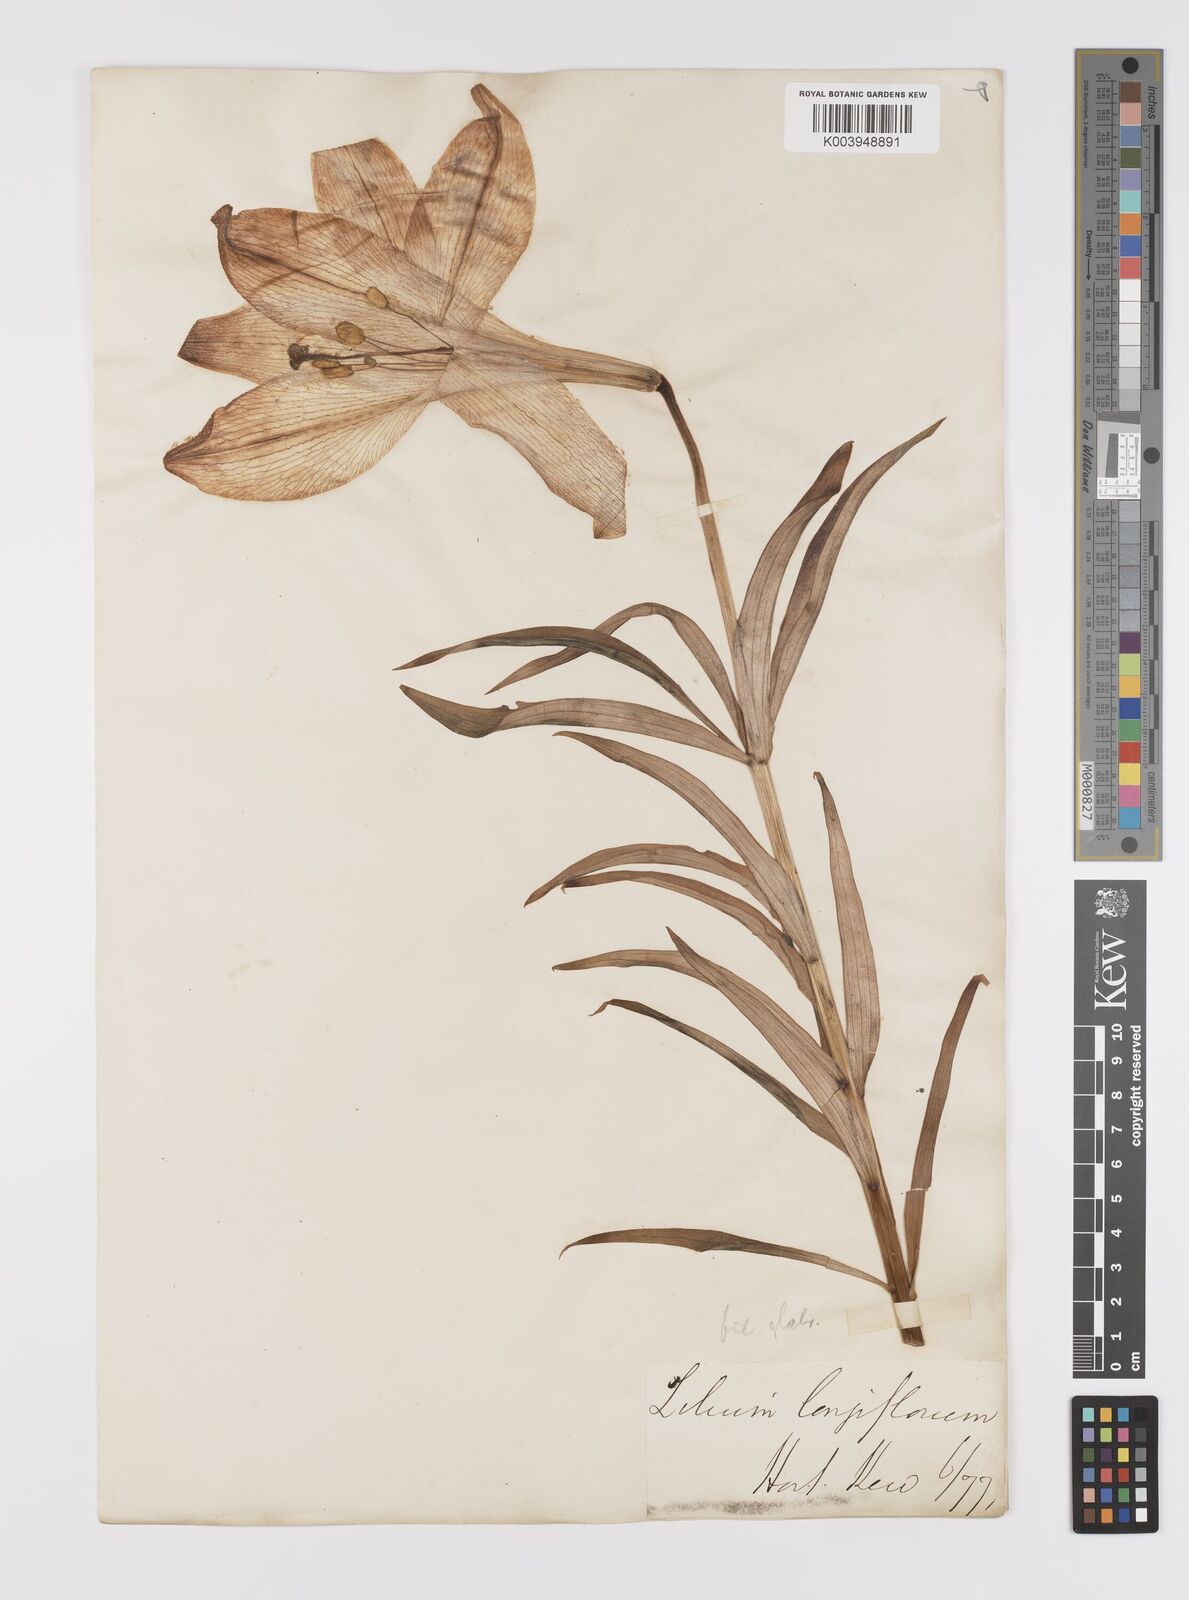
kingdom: Plantae
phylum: Tracheophyta
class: Liliopsida
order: Liliales
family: Liliaceae
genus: Lilium
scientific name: Lilium
